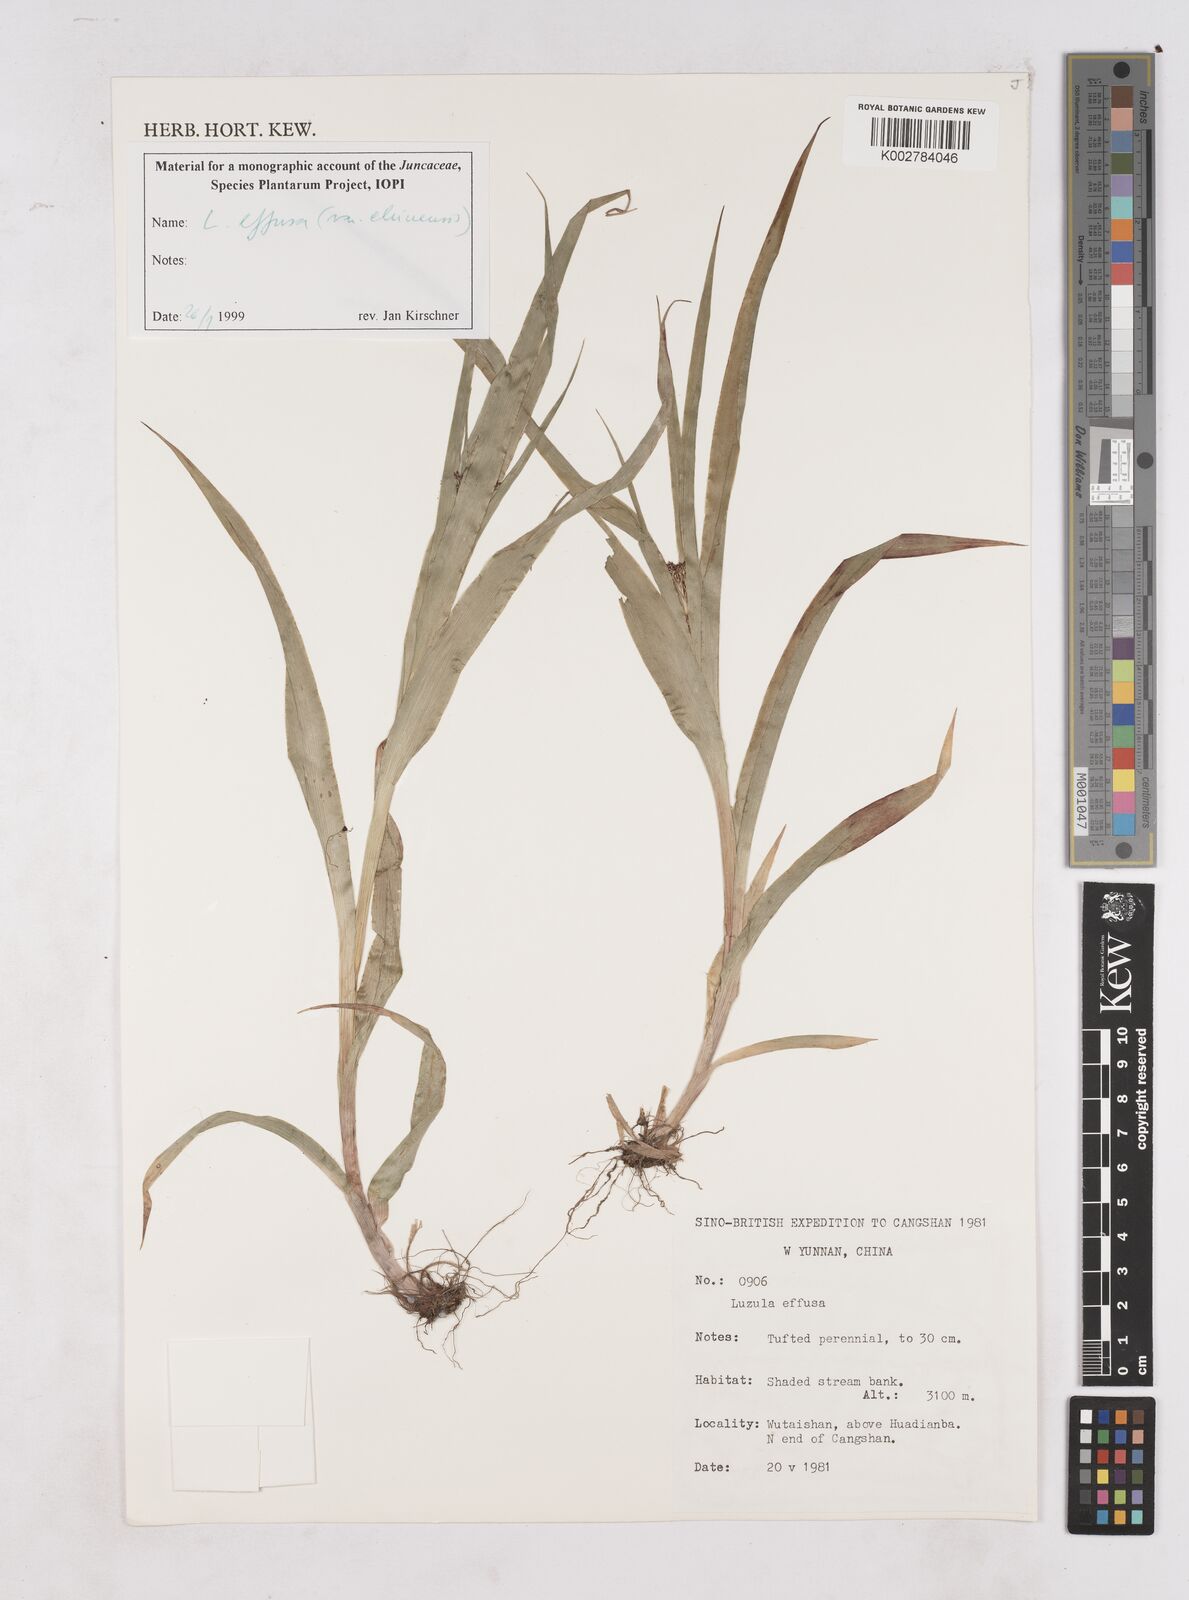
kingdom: Plantae
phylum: Tracheophyta
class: Liliopsida
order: Poales
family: Juncaceae
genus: Luzula
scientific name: Luzula
